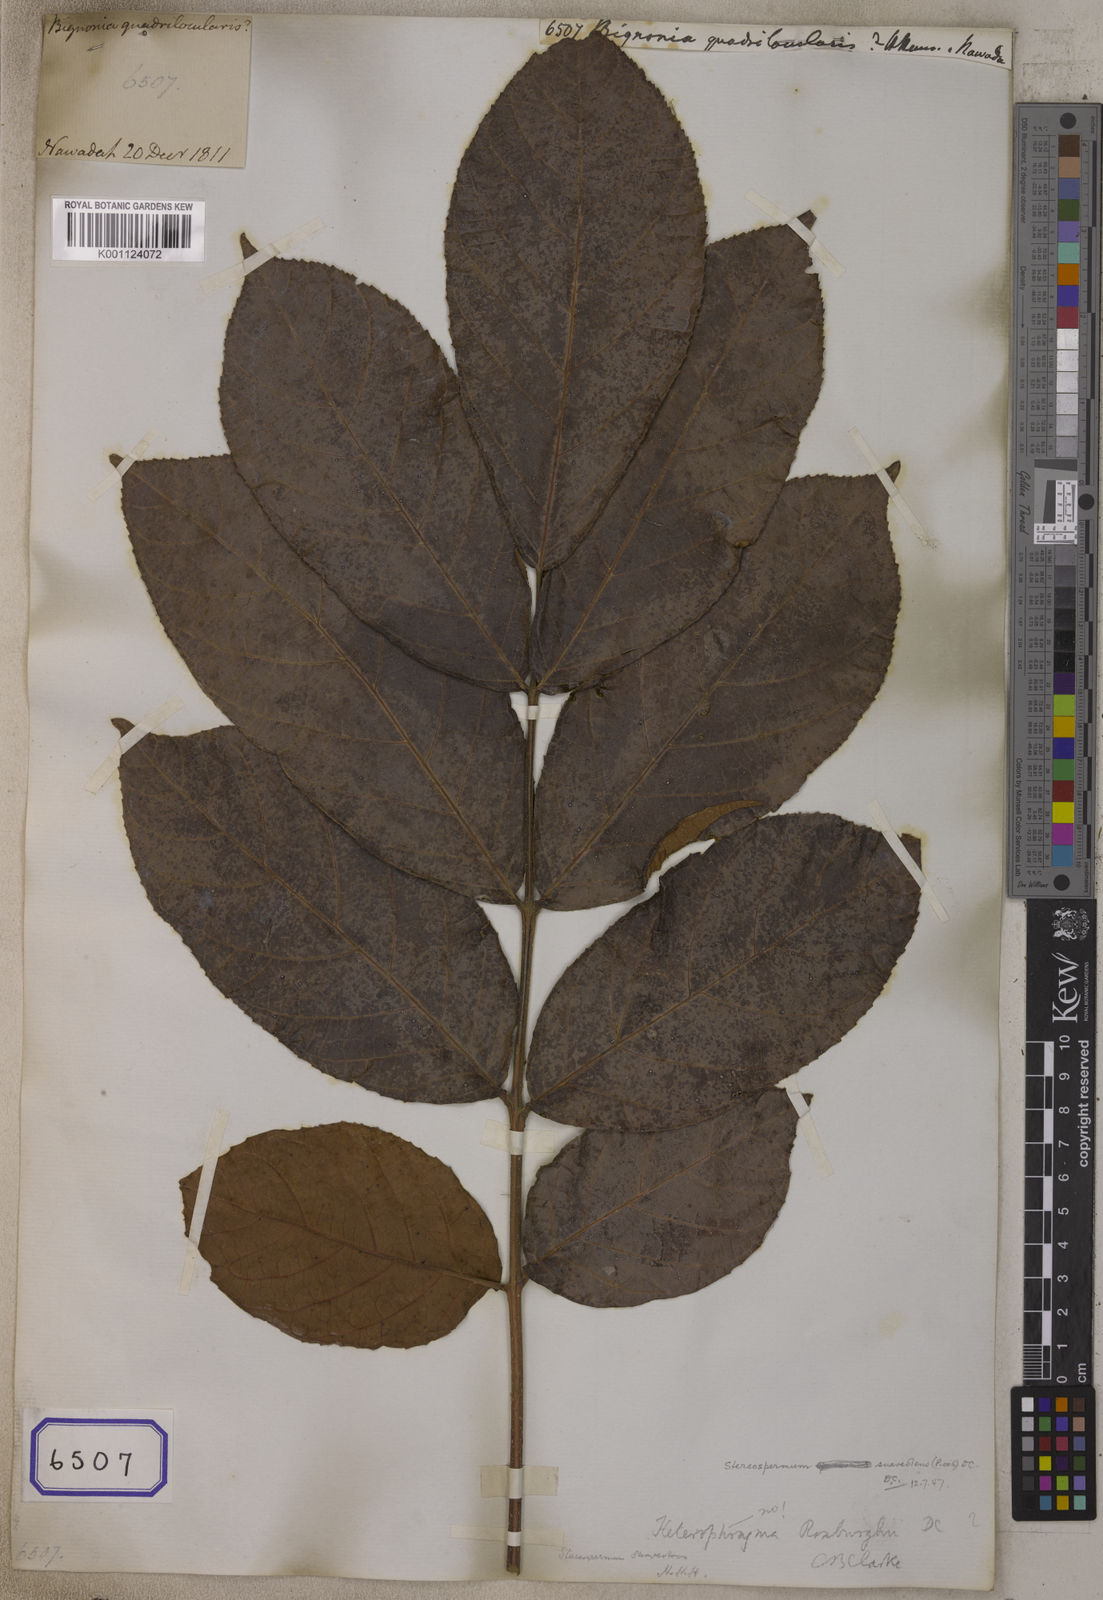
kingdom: Plantae
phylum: Tracheophyta
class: Magnoliopsida
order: Lamiales
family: Bignoniaceae
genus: Heterophragma
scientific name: Heterophragma quadriloculare
